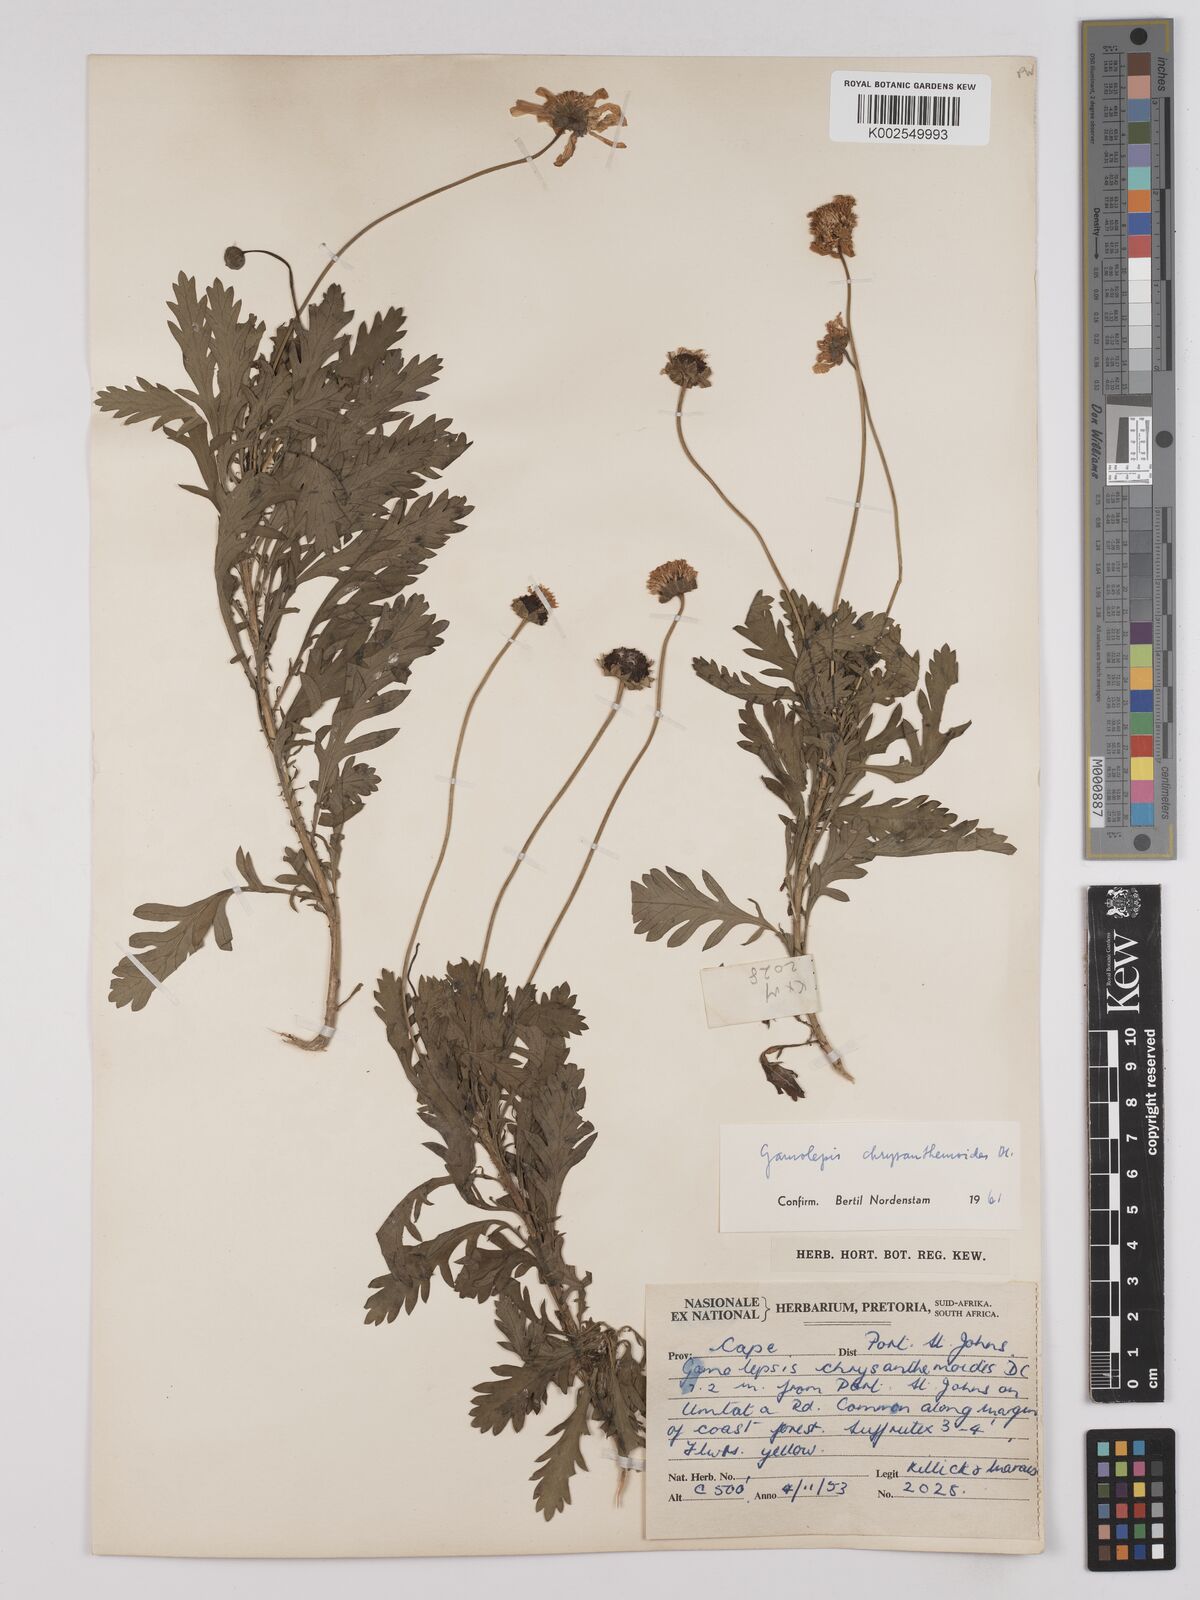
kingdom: Plantae
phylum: Tracheophyta
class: Magnoliopsida
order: Asterales
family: Asteraceae
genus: Euryops
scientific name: Euryops chrysanthemoides
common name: Bull's eye
